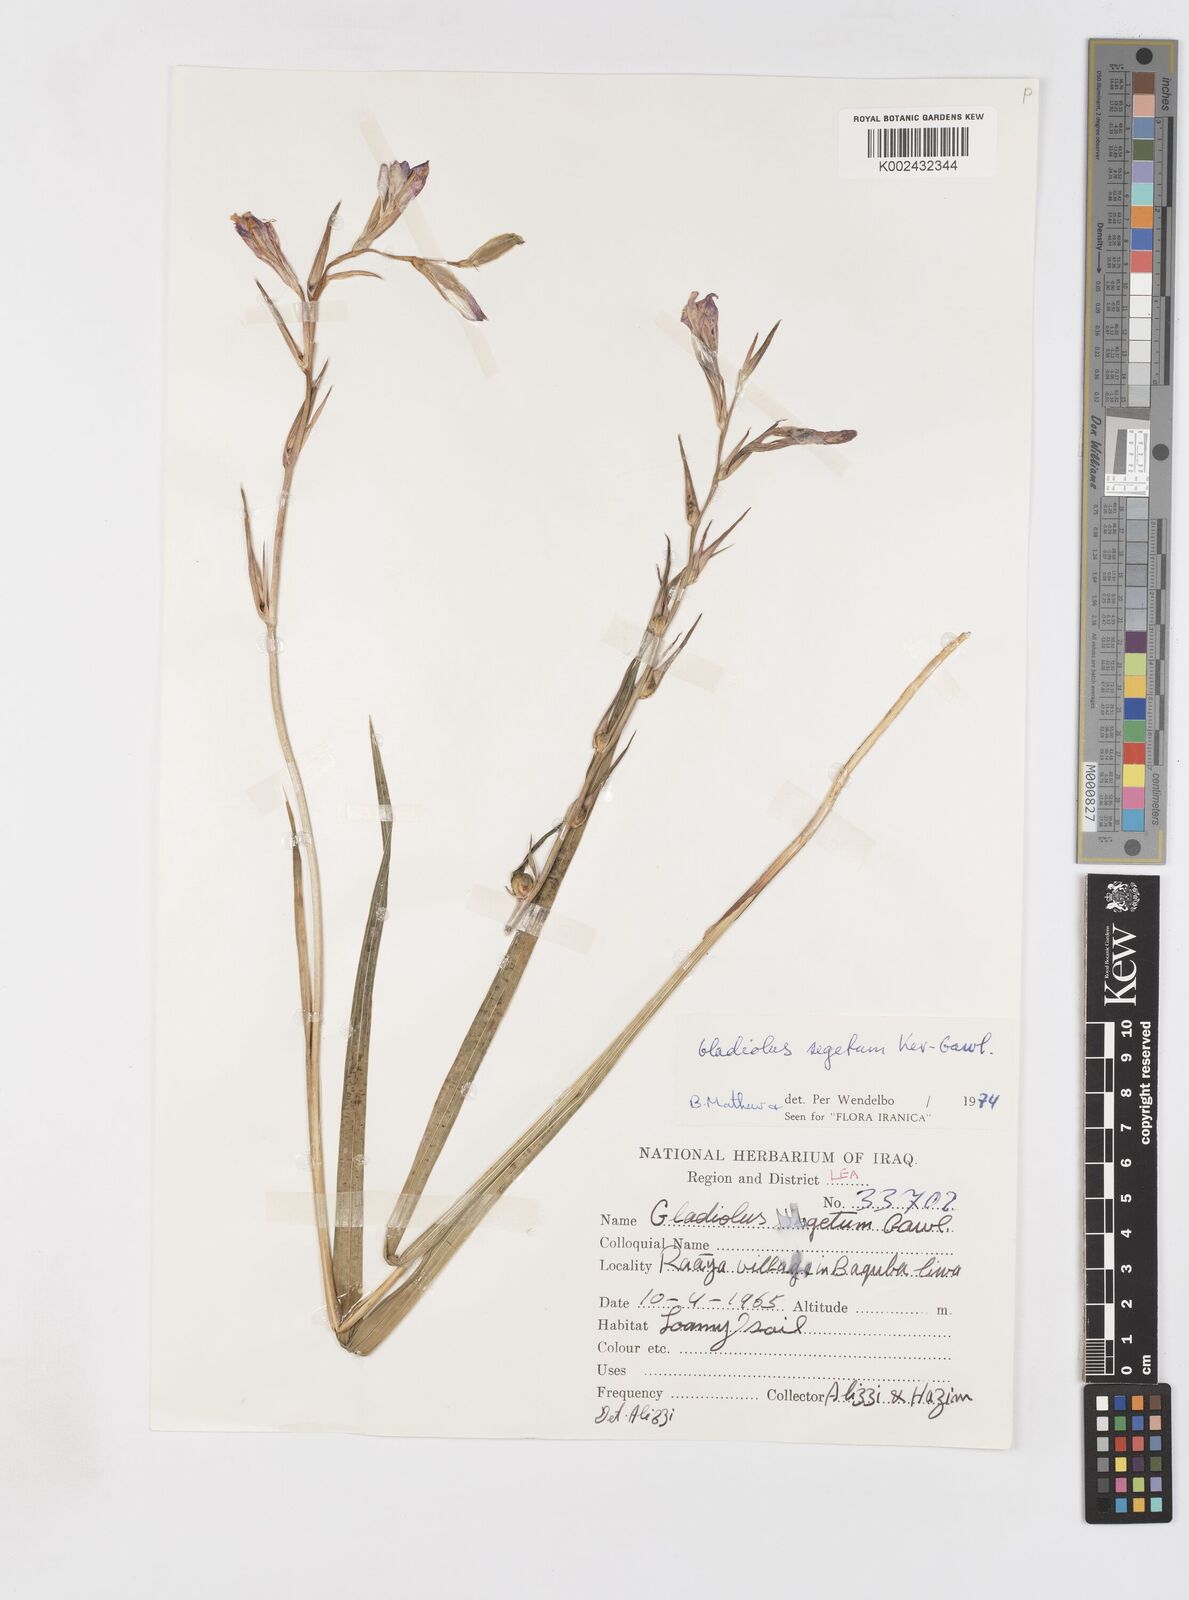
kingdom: Plantae
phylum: Tracheophyta
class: Liliopsida
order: Asparagales
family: Iridaceae
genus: Gladiolus
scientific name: Gladiolus italicus
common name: Field gladiolus
